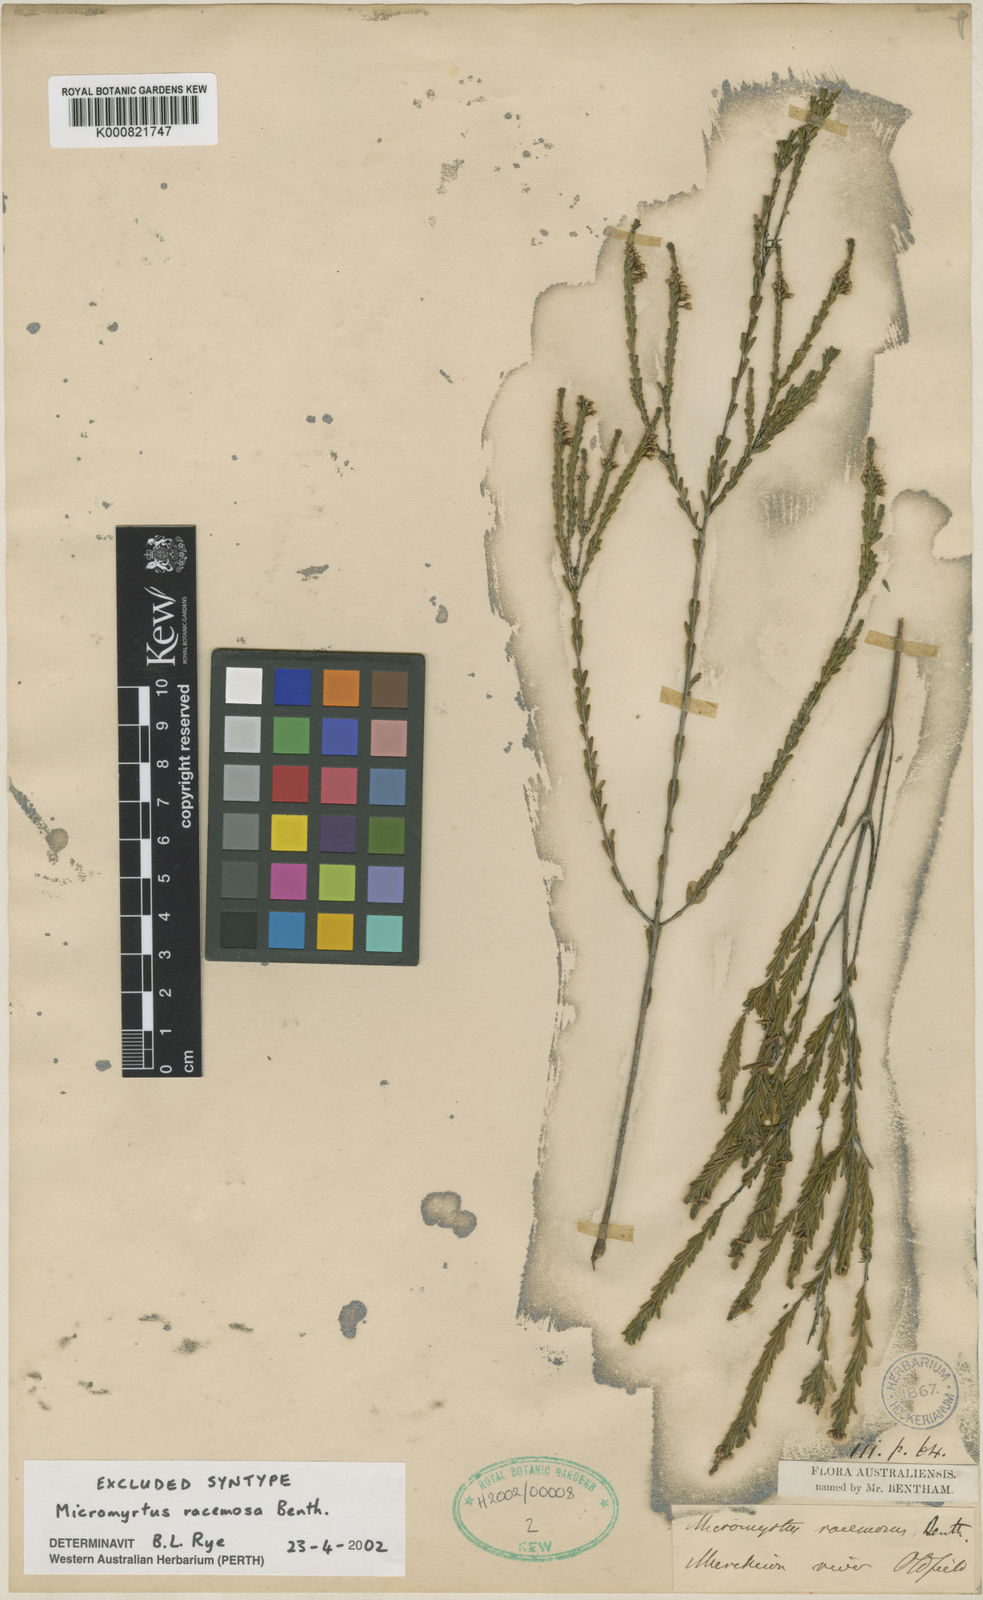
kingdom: Plantae
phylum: Tracheophyta
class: Magnoliopsida
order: Myrtales
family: Myrtaceae
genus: Micromyrtus
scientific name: Micromyrtus racemosa
